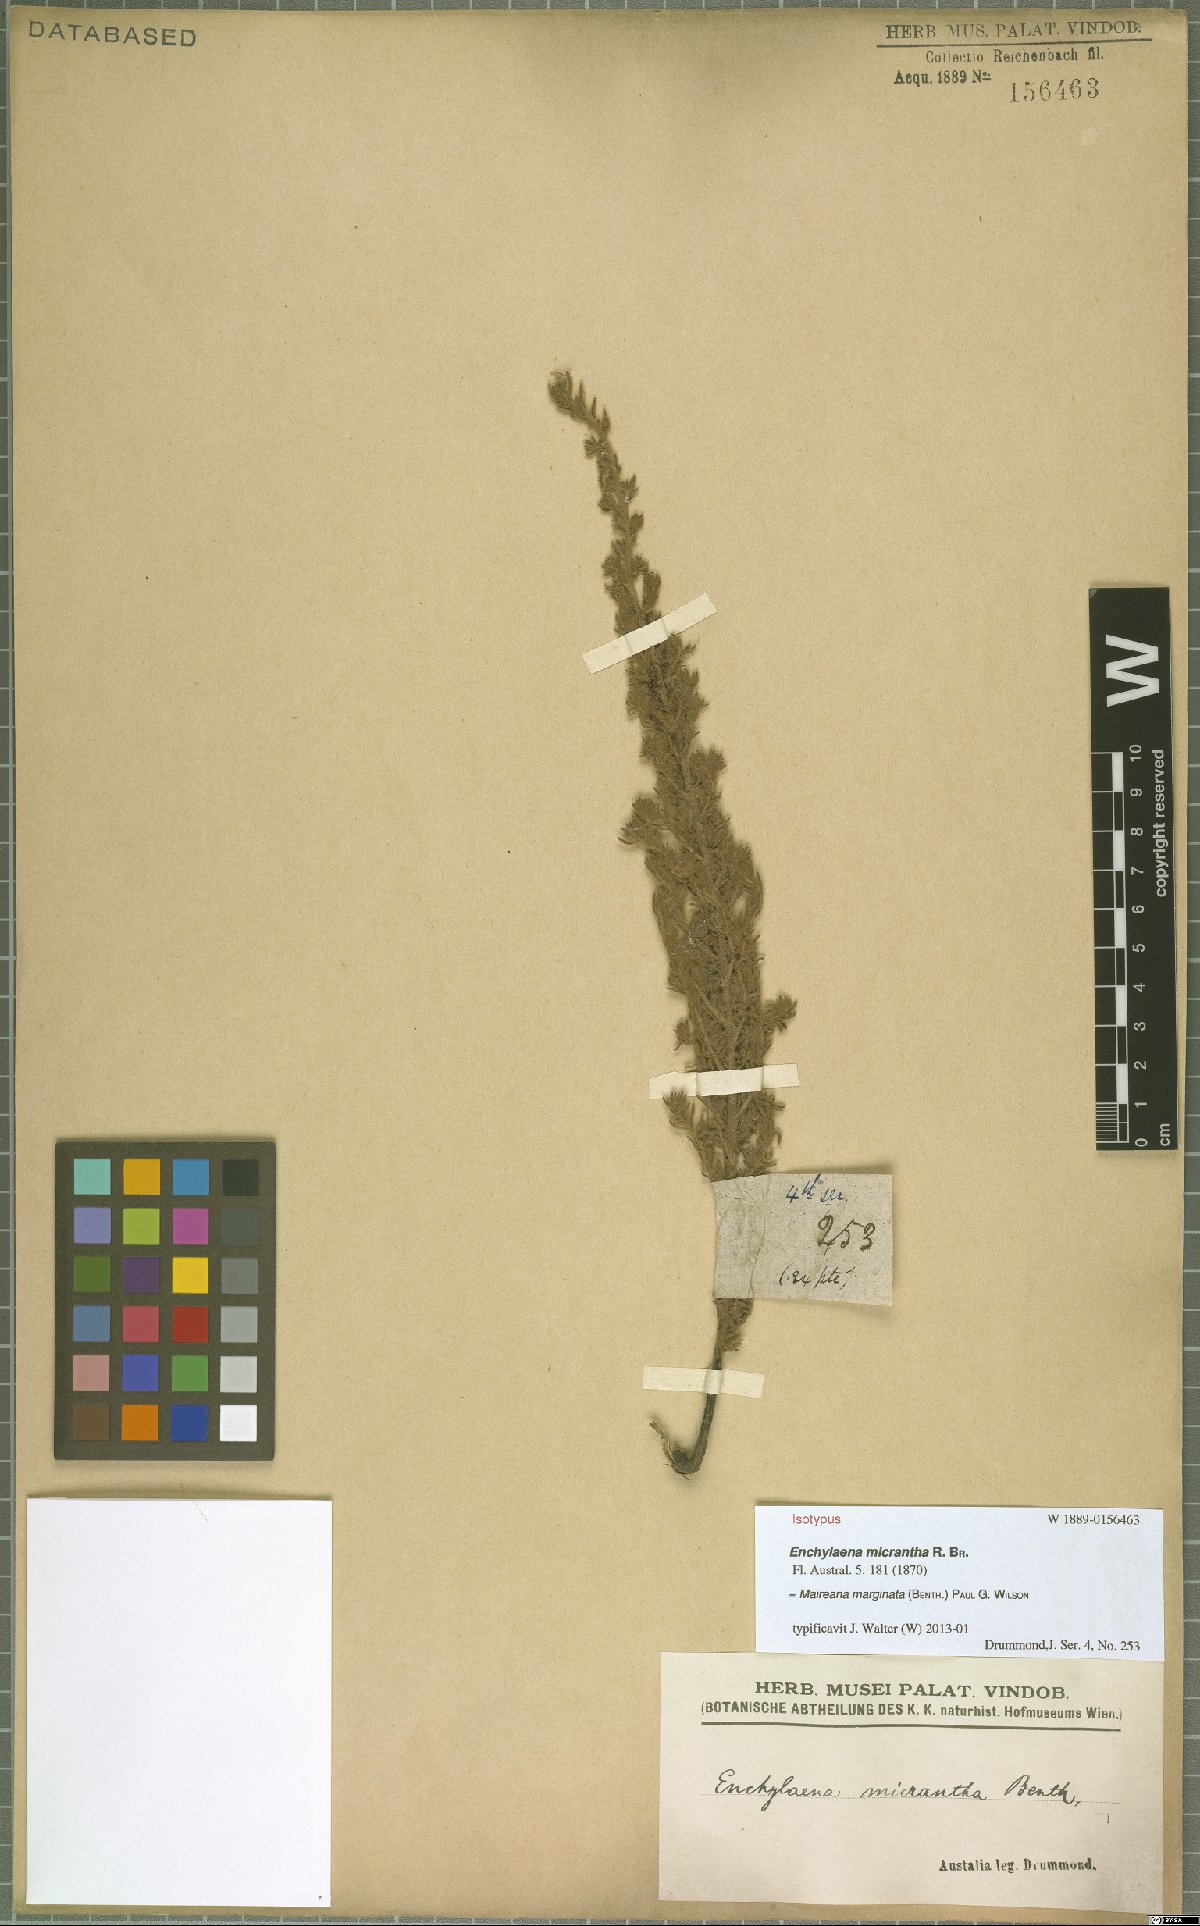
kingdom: Plantae
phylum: Tracheophyta
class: Magnoliopsida
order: Caryophyllales
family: Amaranthaceae
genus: Maireana
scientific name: Maireana marginata
